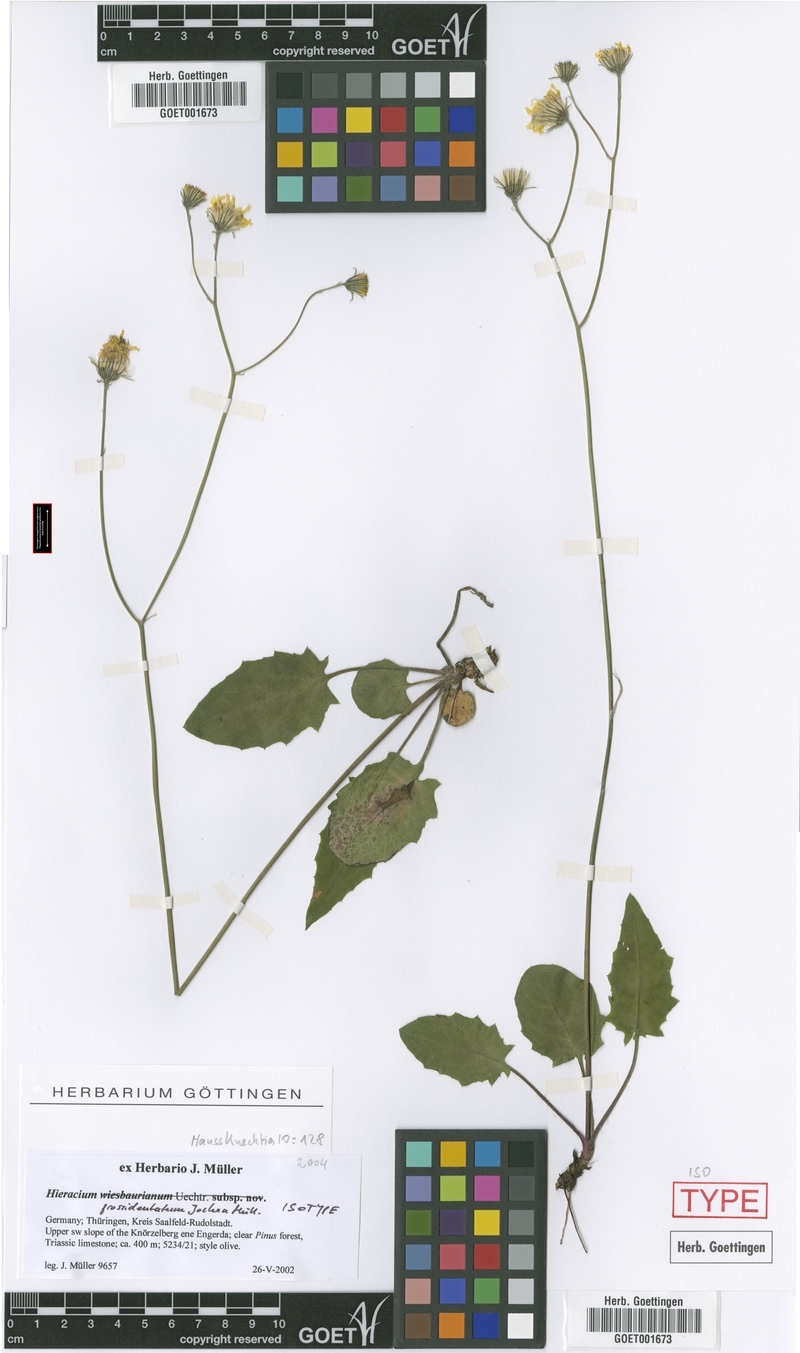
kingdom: Plantae
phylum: Tracheophyta
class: Magnoliopsida
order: Asterales
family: Asteraceae
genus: Hieracium
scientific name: Hieracium hypochoeroides
